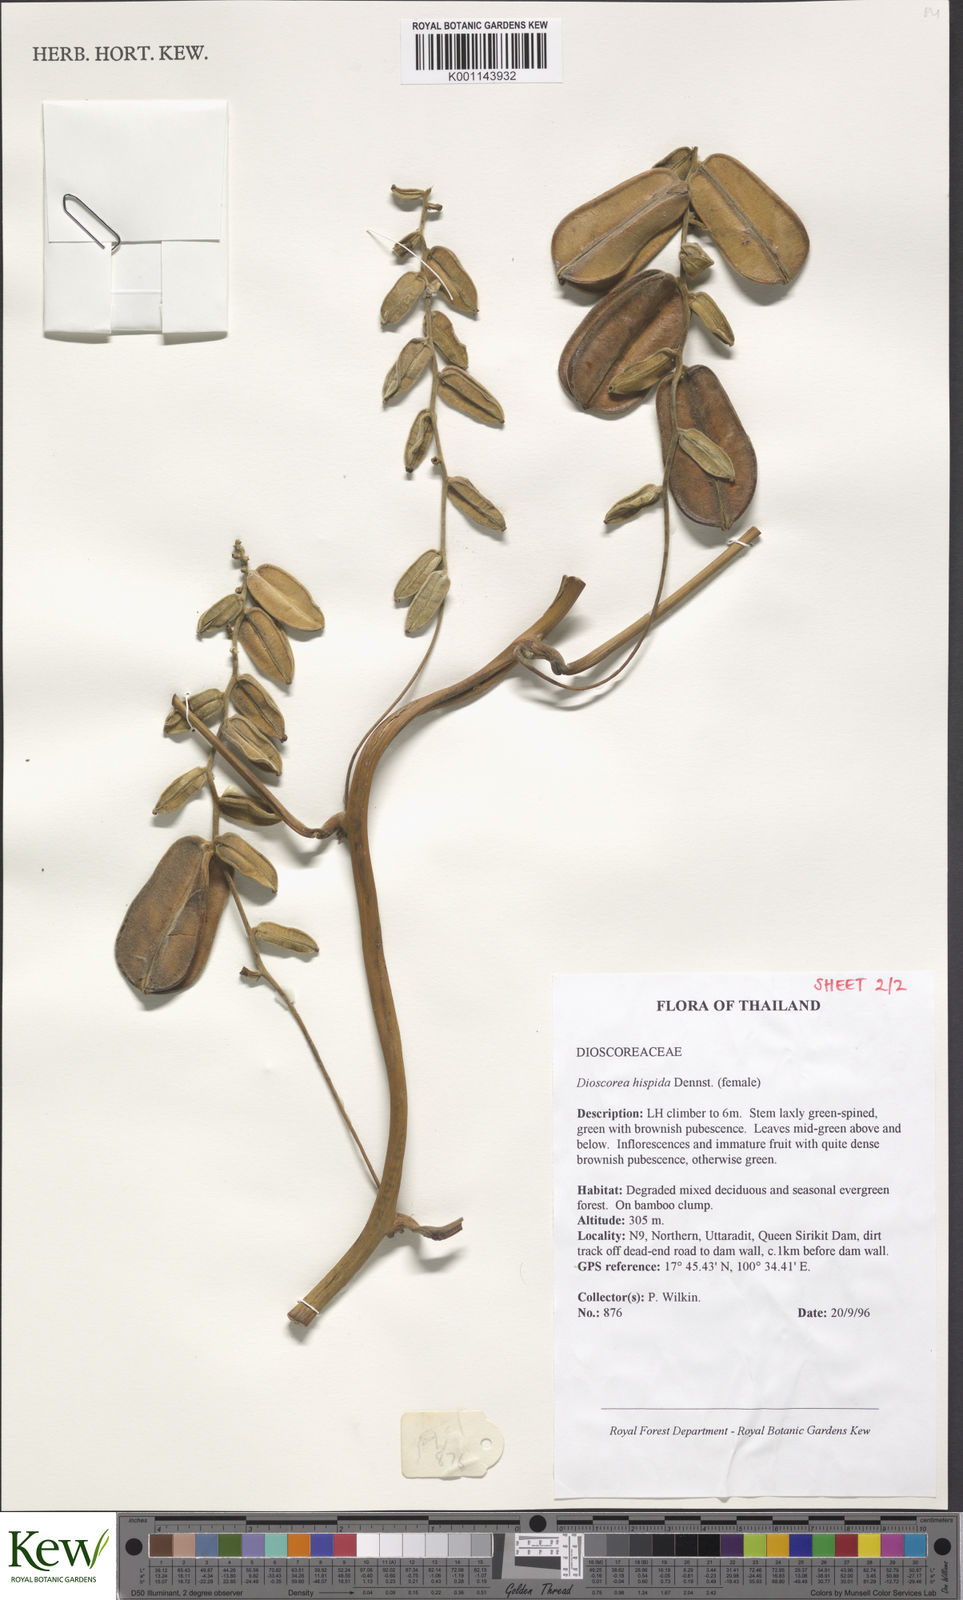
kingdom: Plantae
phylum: Tracheophyta
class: Liliopsida
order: Dioscoreales
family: Dioscoreaceae
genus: Dioscorea
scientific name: Dioscorea hispida
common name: Asiatic bitter yam
